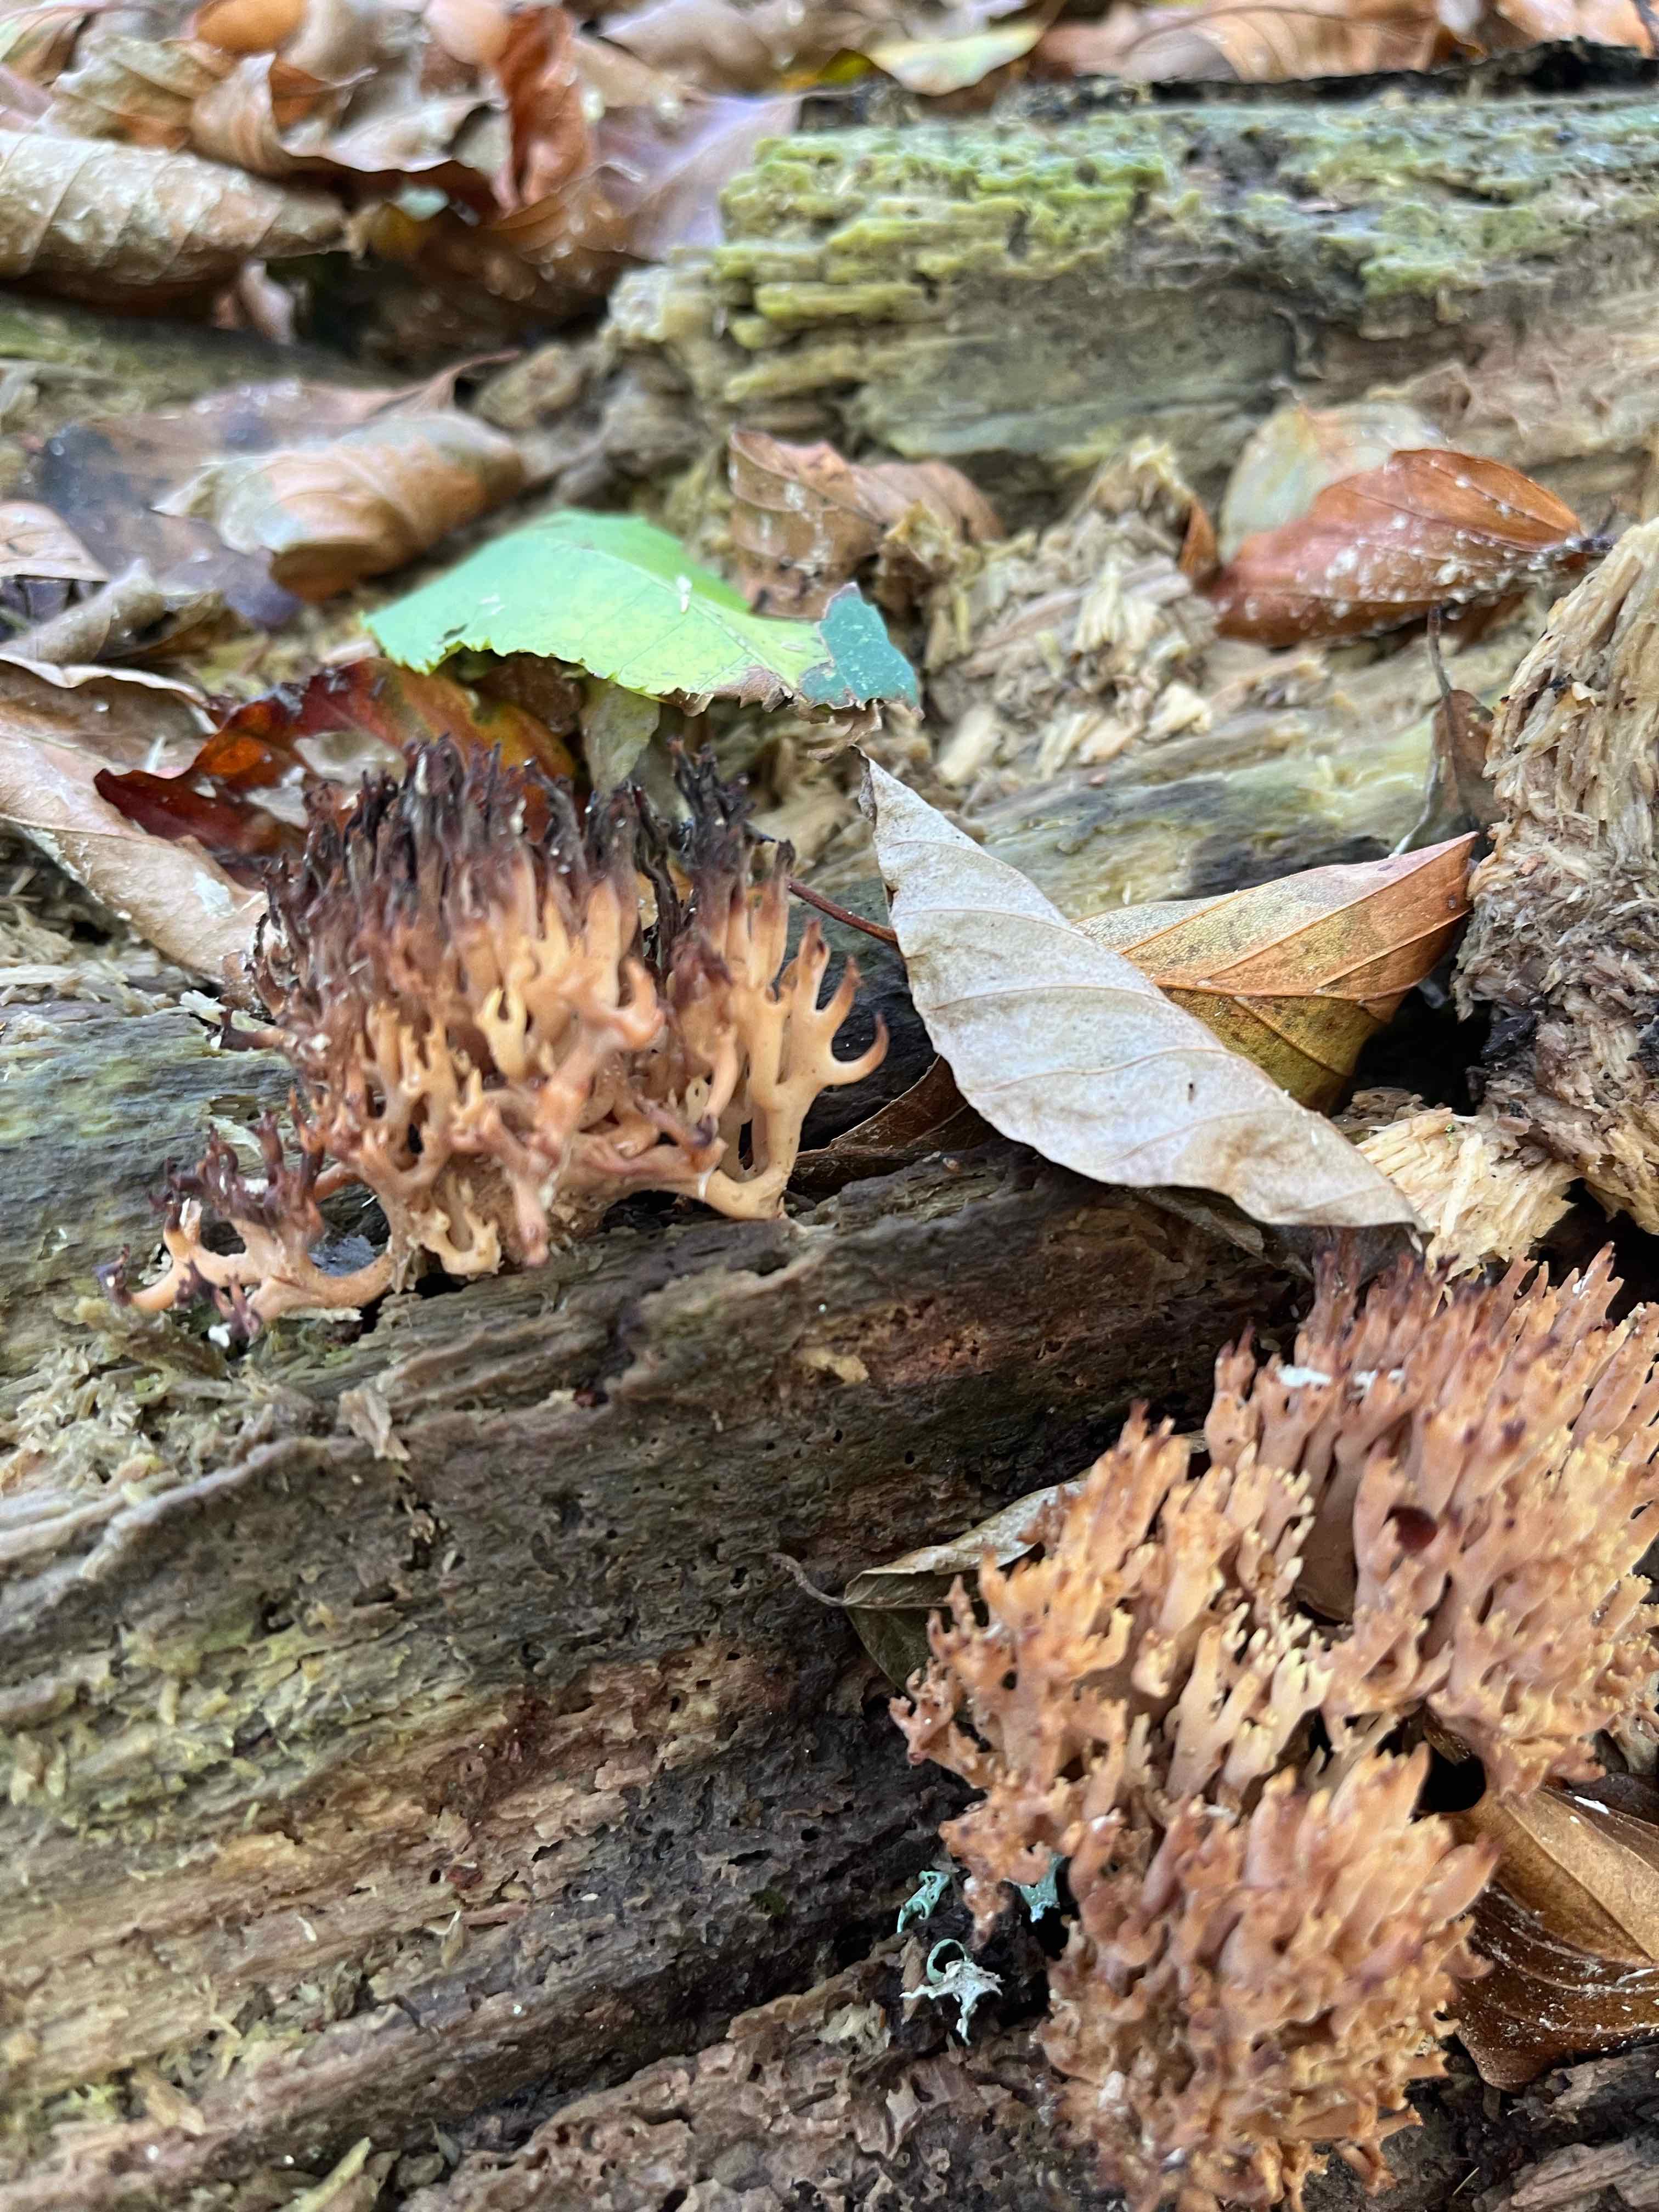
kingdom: Fungi
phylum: Basidiomycota
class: Agaricomycetes
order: Gomphales
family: Gomphaceae
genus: Ramaria
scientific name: Ramaria stricta
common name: rank koralsvamp
